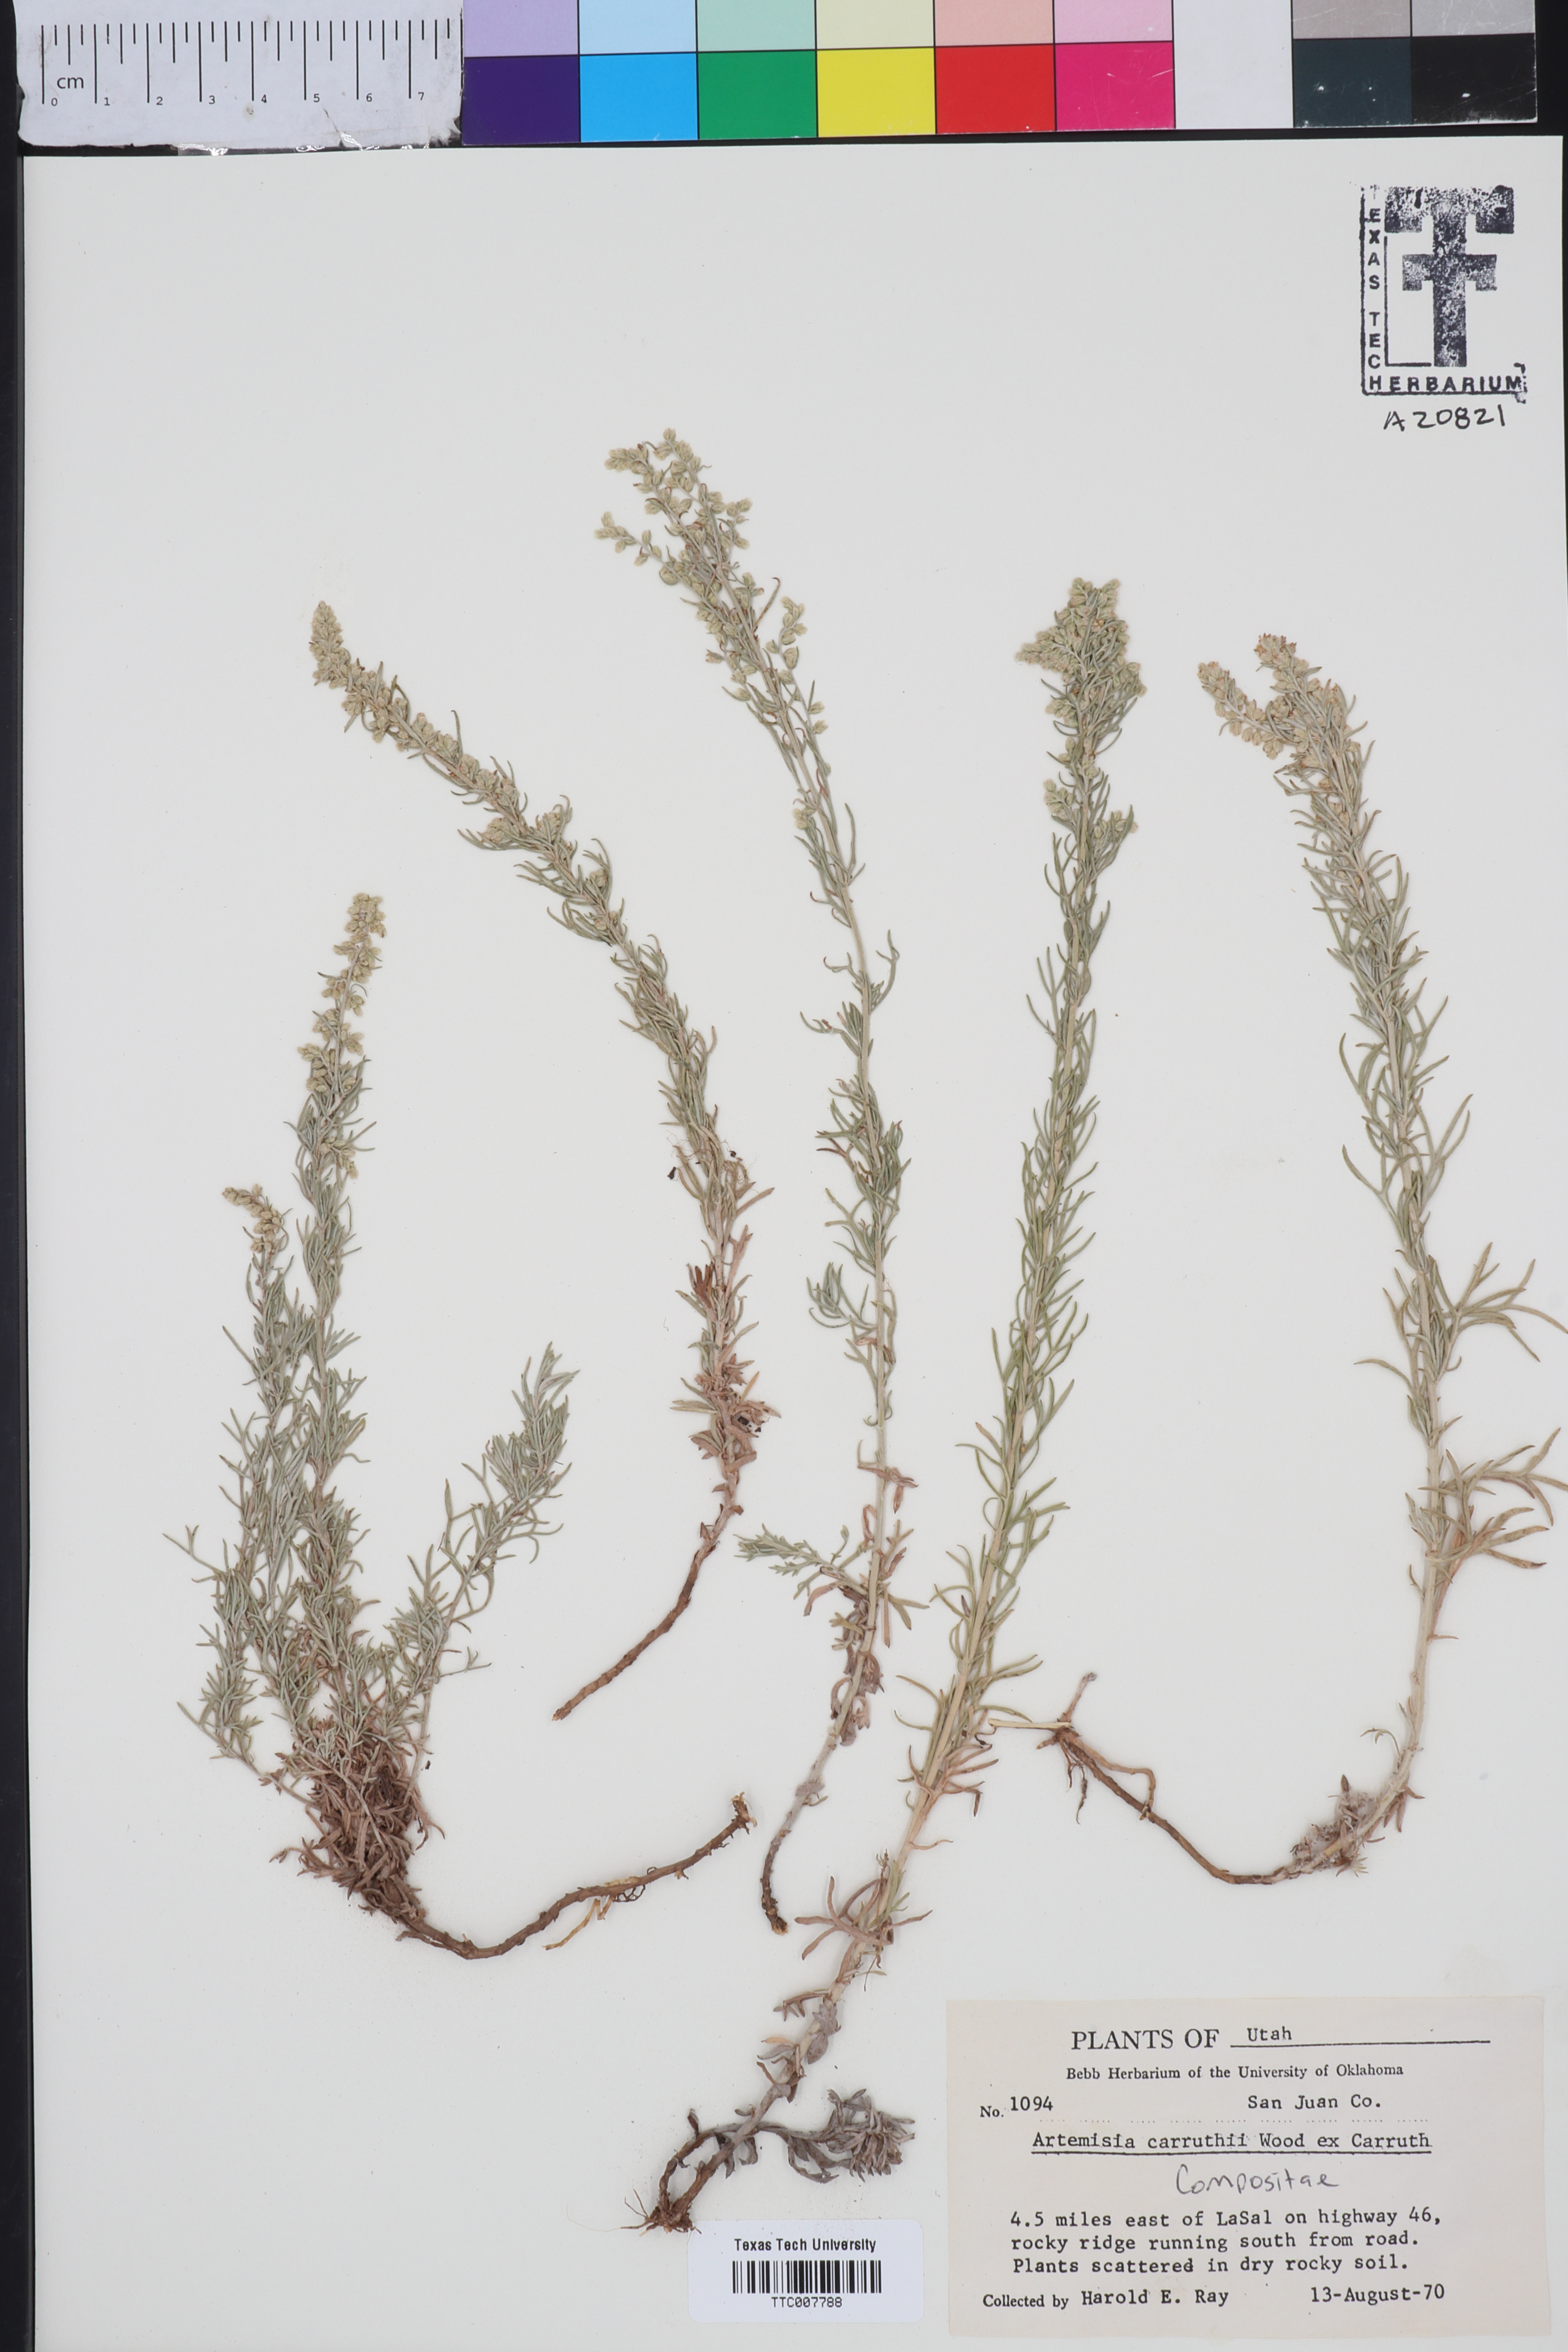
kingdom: Plantae
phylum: Tracheophyta
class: Magnoliopsida
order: Asterales
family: Asteraceae
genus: Artemisia
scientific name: Artemisia carruthii
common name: Carruth wormwood
